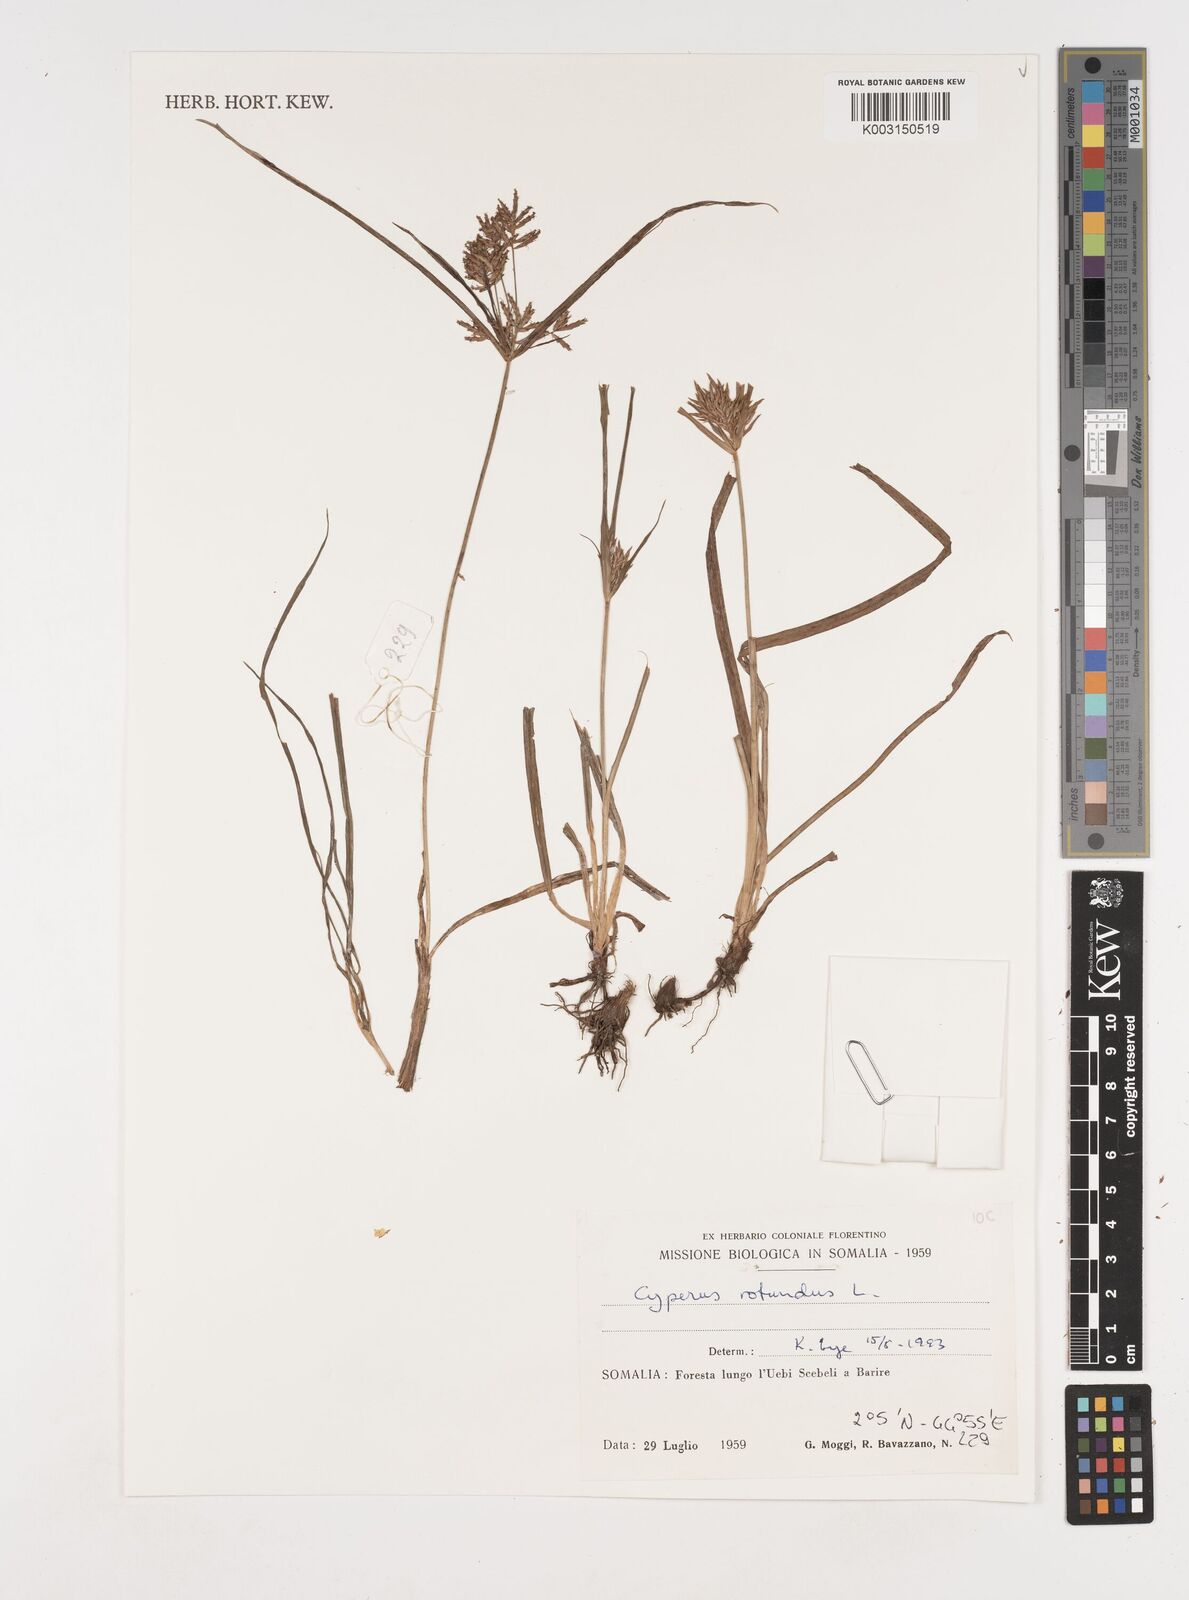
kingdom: Plantae
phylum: Tracheophyta
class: Liliopsida
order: Poales
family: Cyperaceae
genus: Cyperus
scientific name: Cyperus rotundus
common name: Nutgrass
